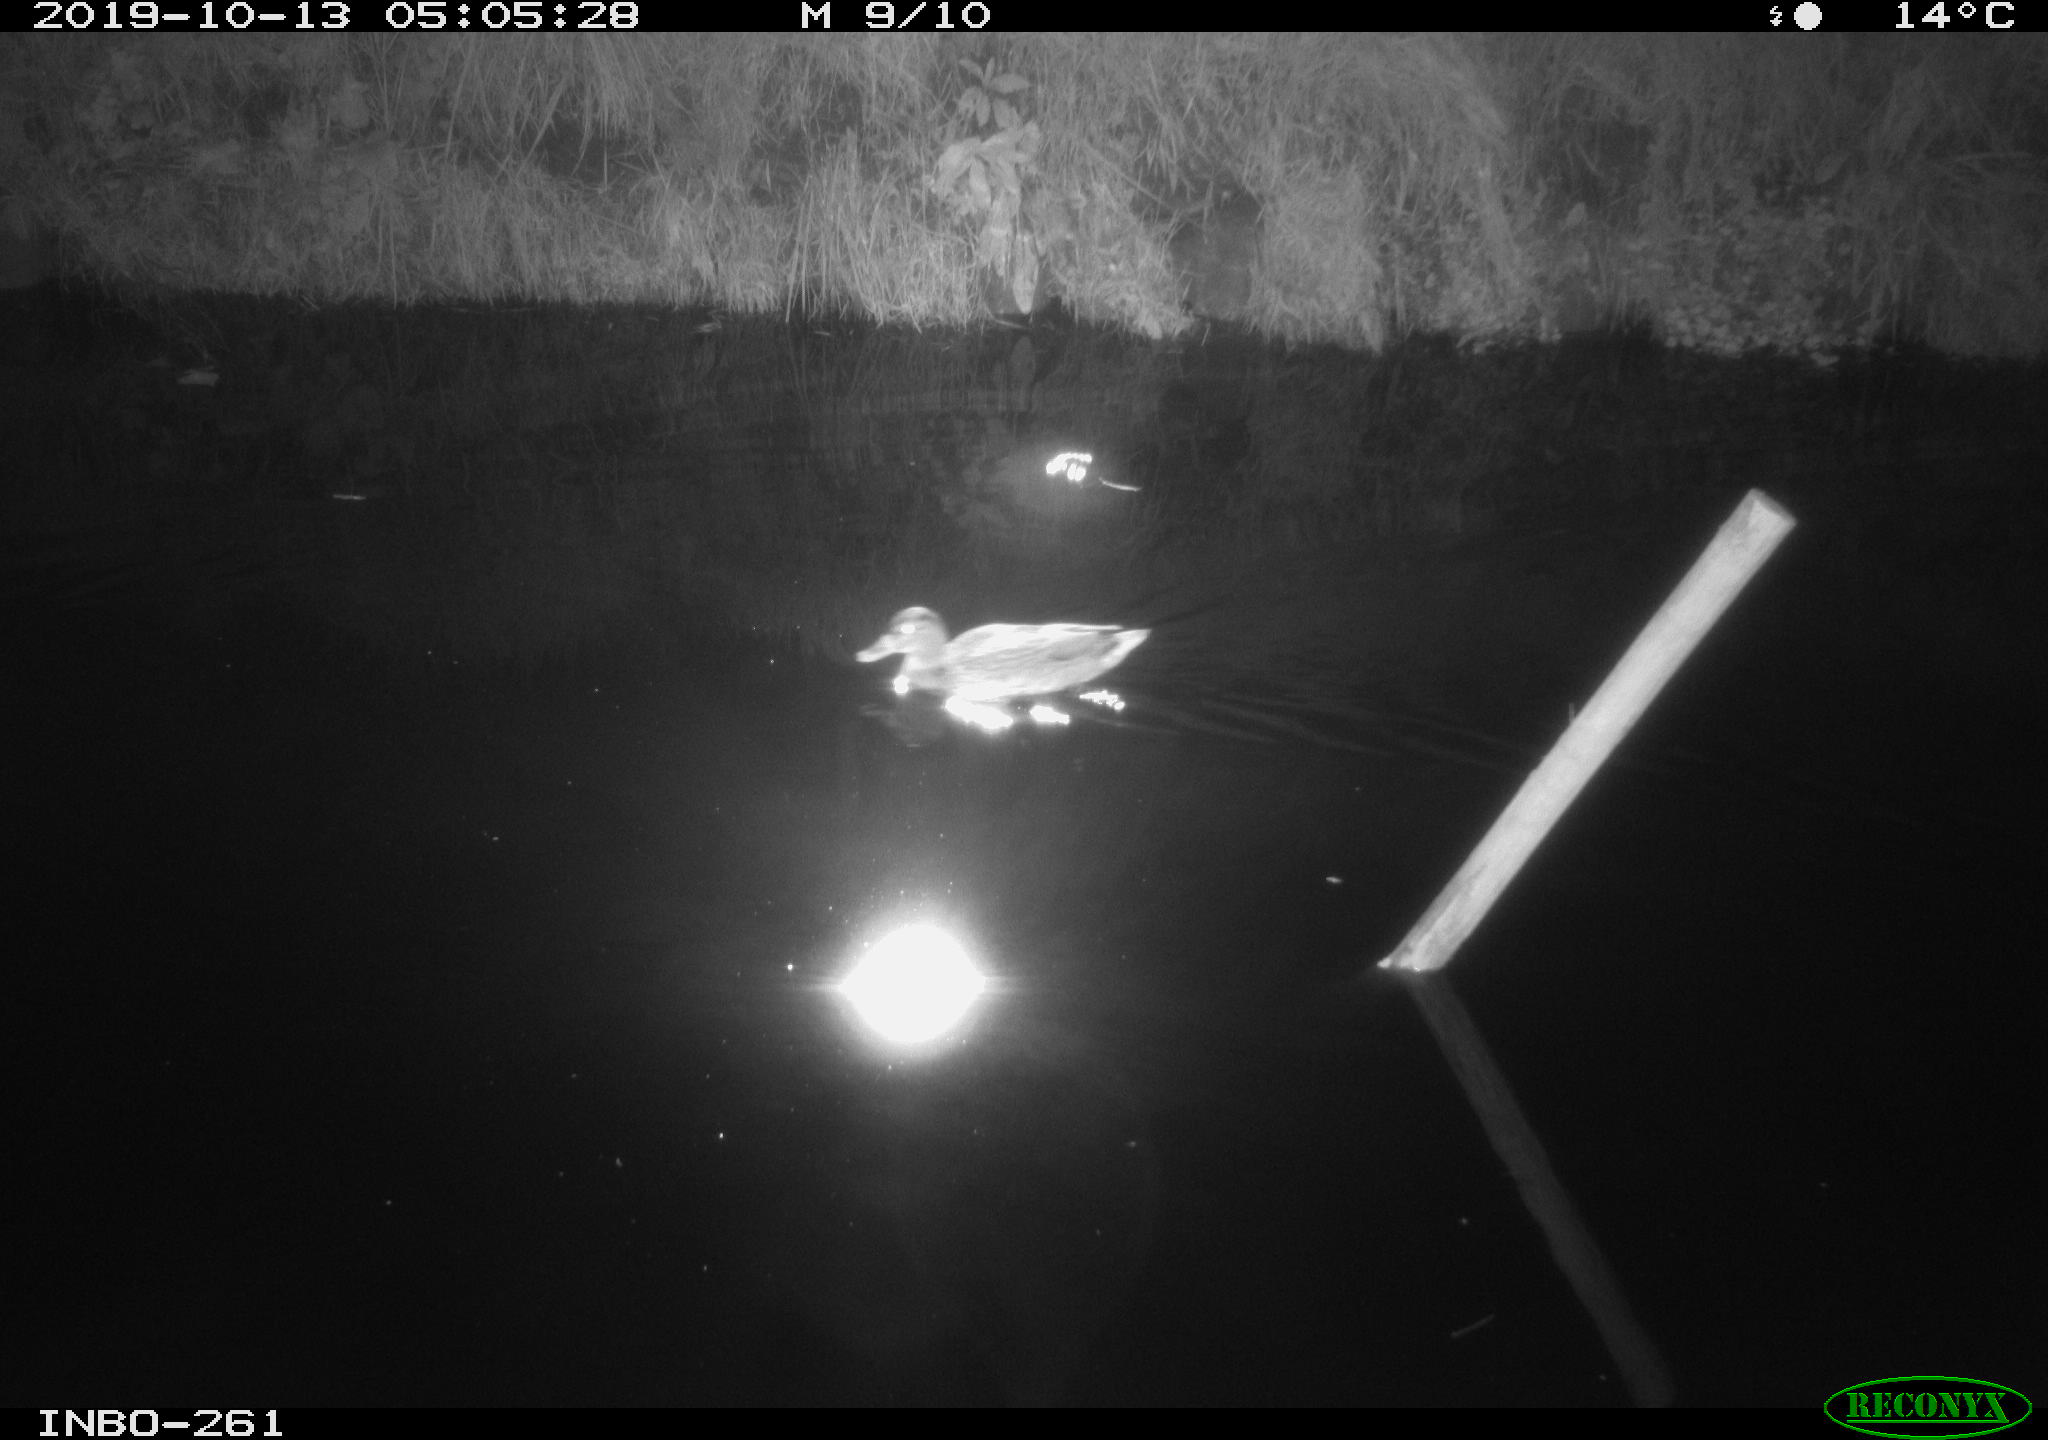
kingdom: Animalia
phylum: Chordata
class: Aves
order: Anseriformes
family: Anatidae
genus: Anas
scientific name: Anas platyrhynchos
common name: Mallard
